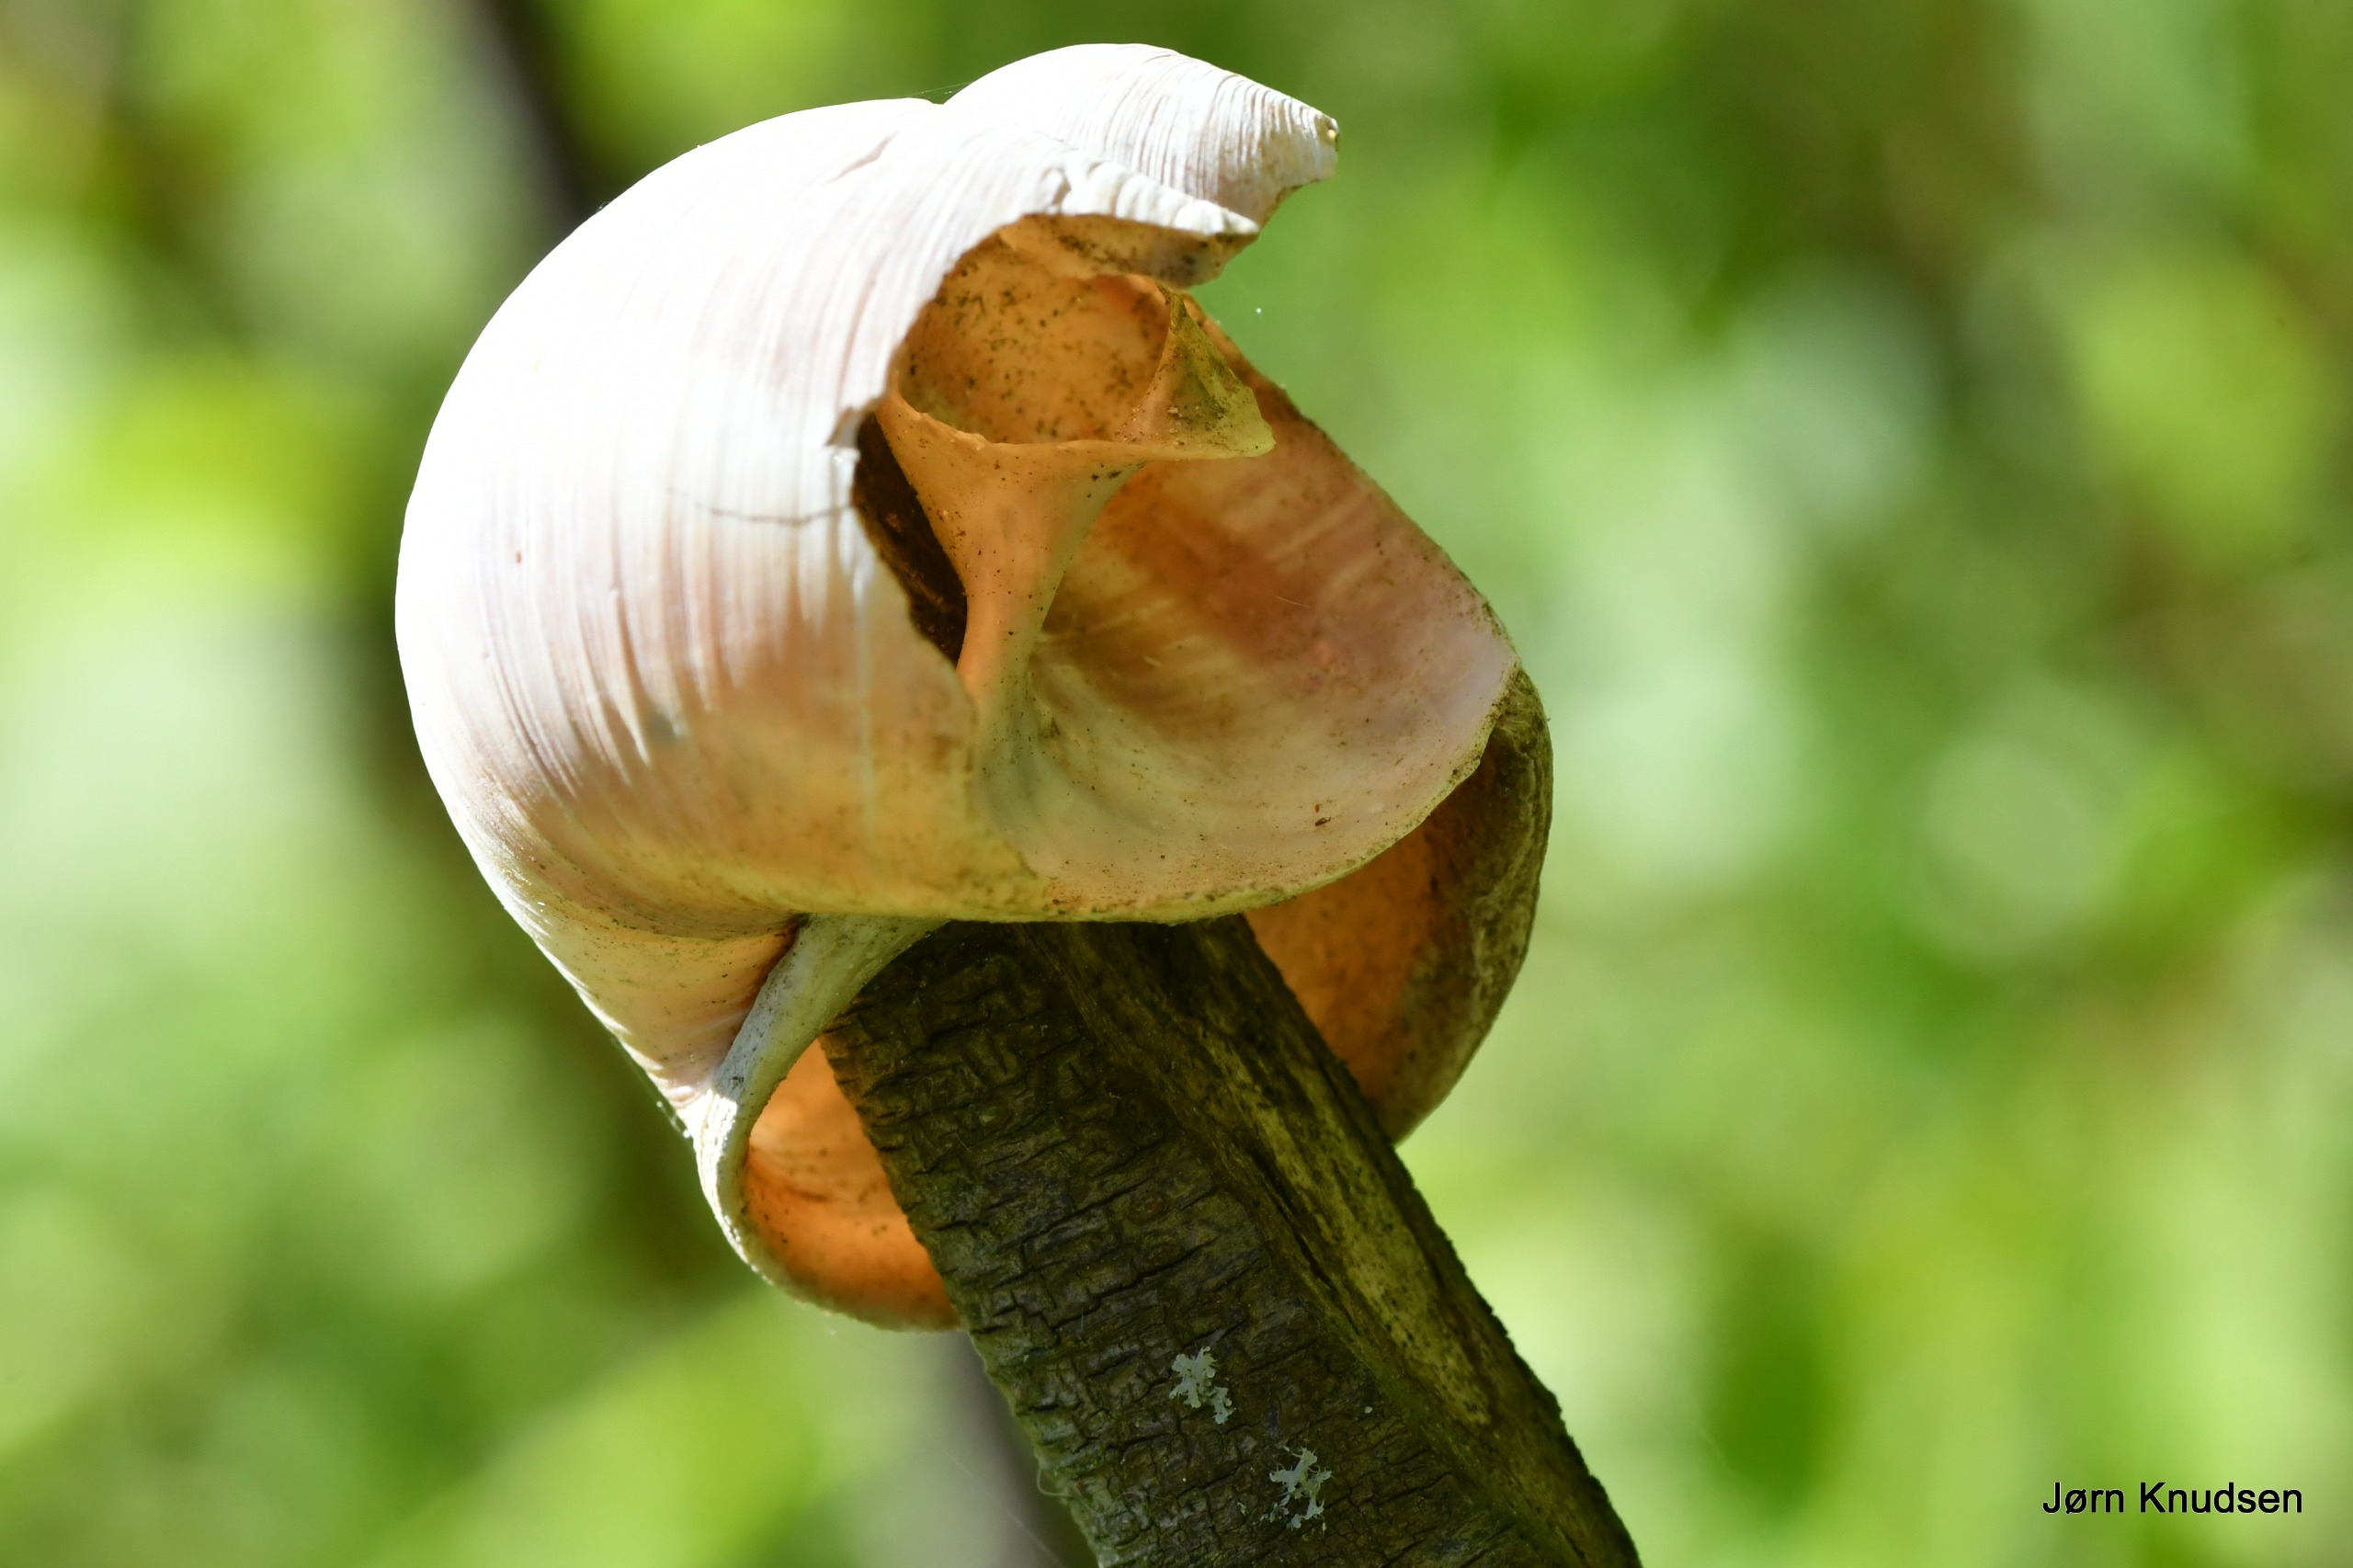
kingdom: Animalia
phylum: Mollusca
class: Gastropoda
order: Stylommatophora
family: Helicidae
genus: Helix
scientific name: Helix pomatia
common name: Vinbjergsnegl
